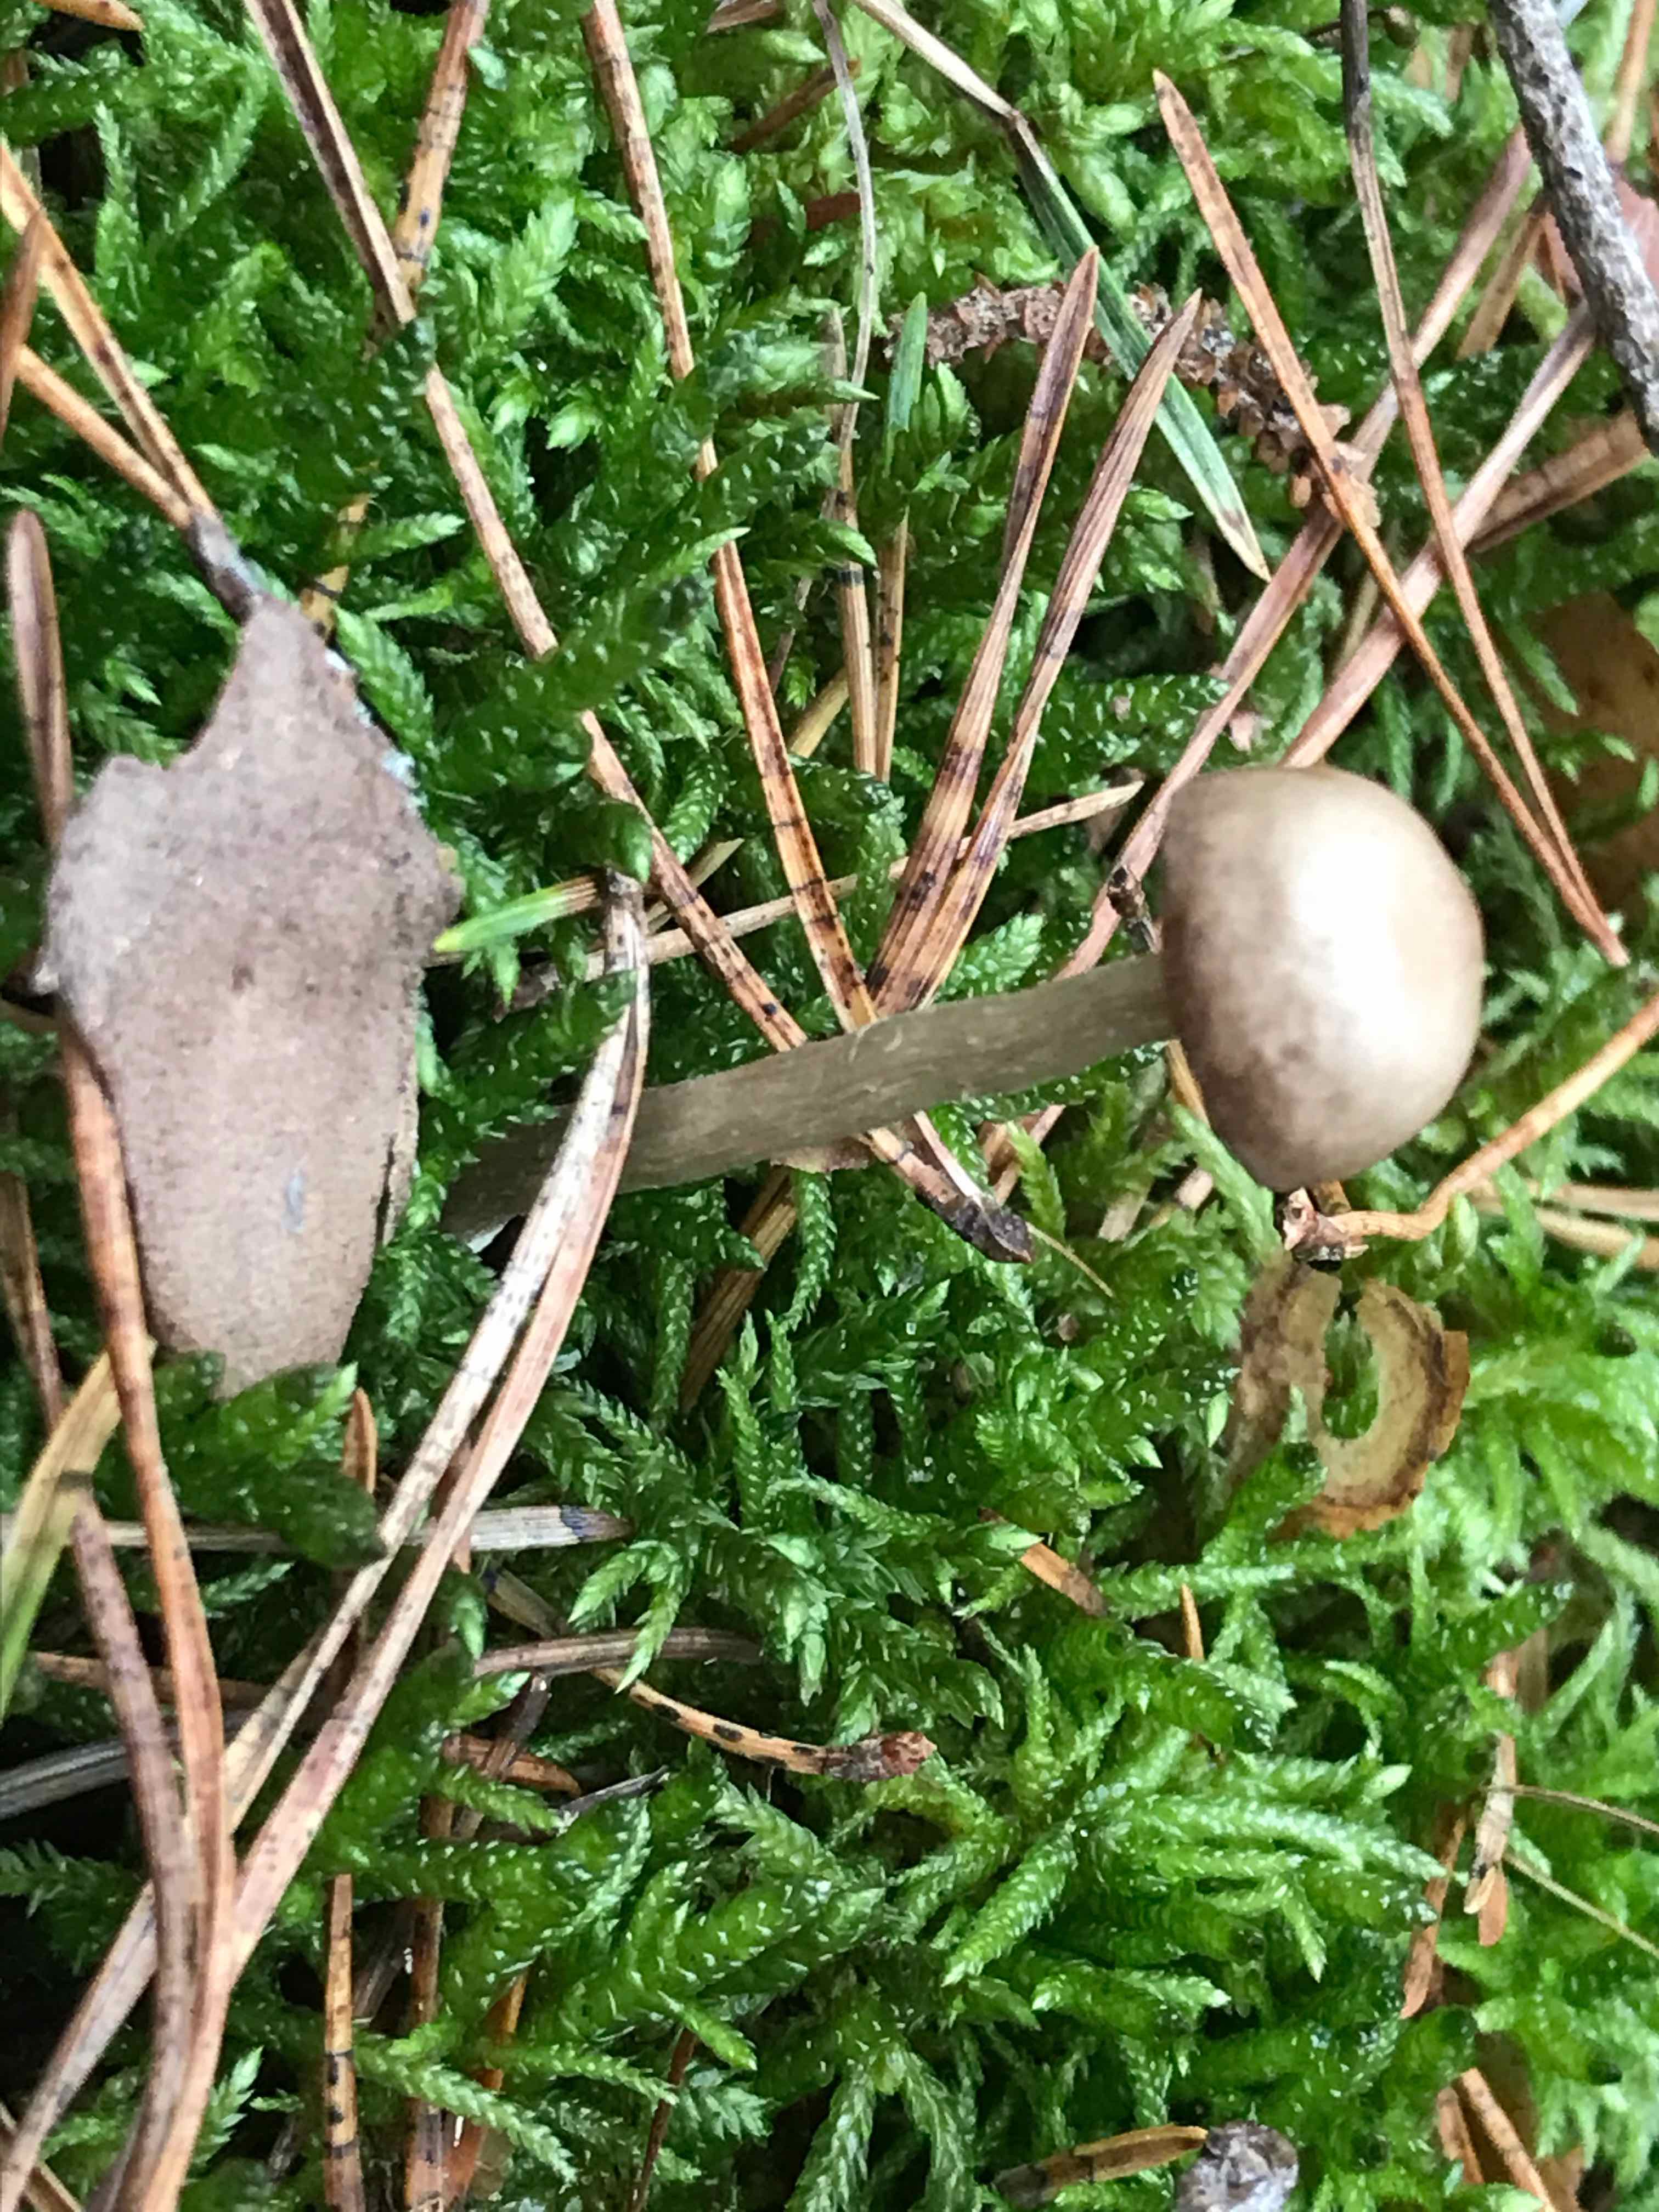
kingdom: Fungi
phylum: Basidiomycota
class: Agaricomycetes
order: Agaricales
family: Entolomataceae
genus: Entoloma
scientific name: Entoloma
